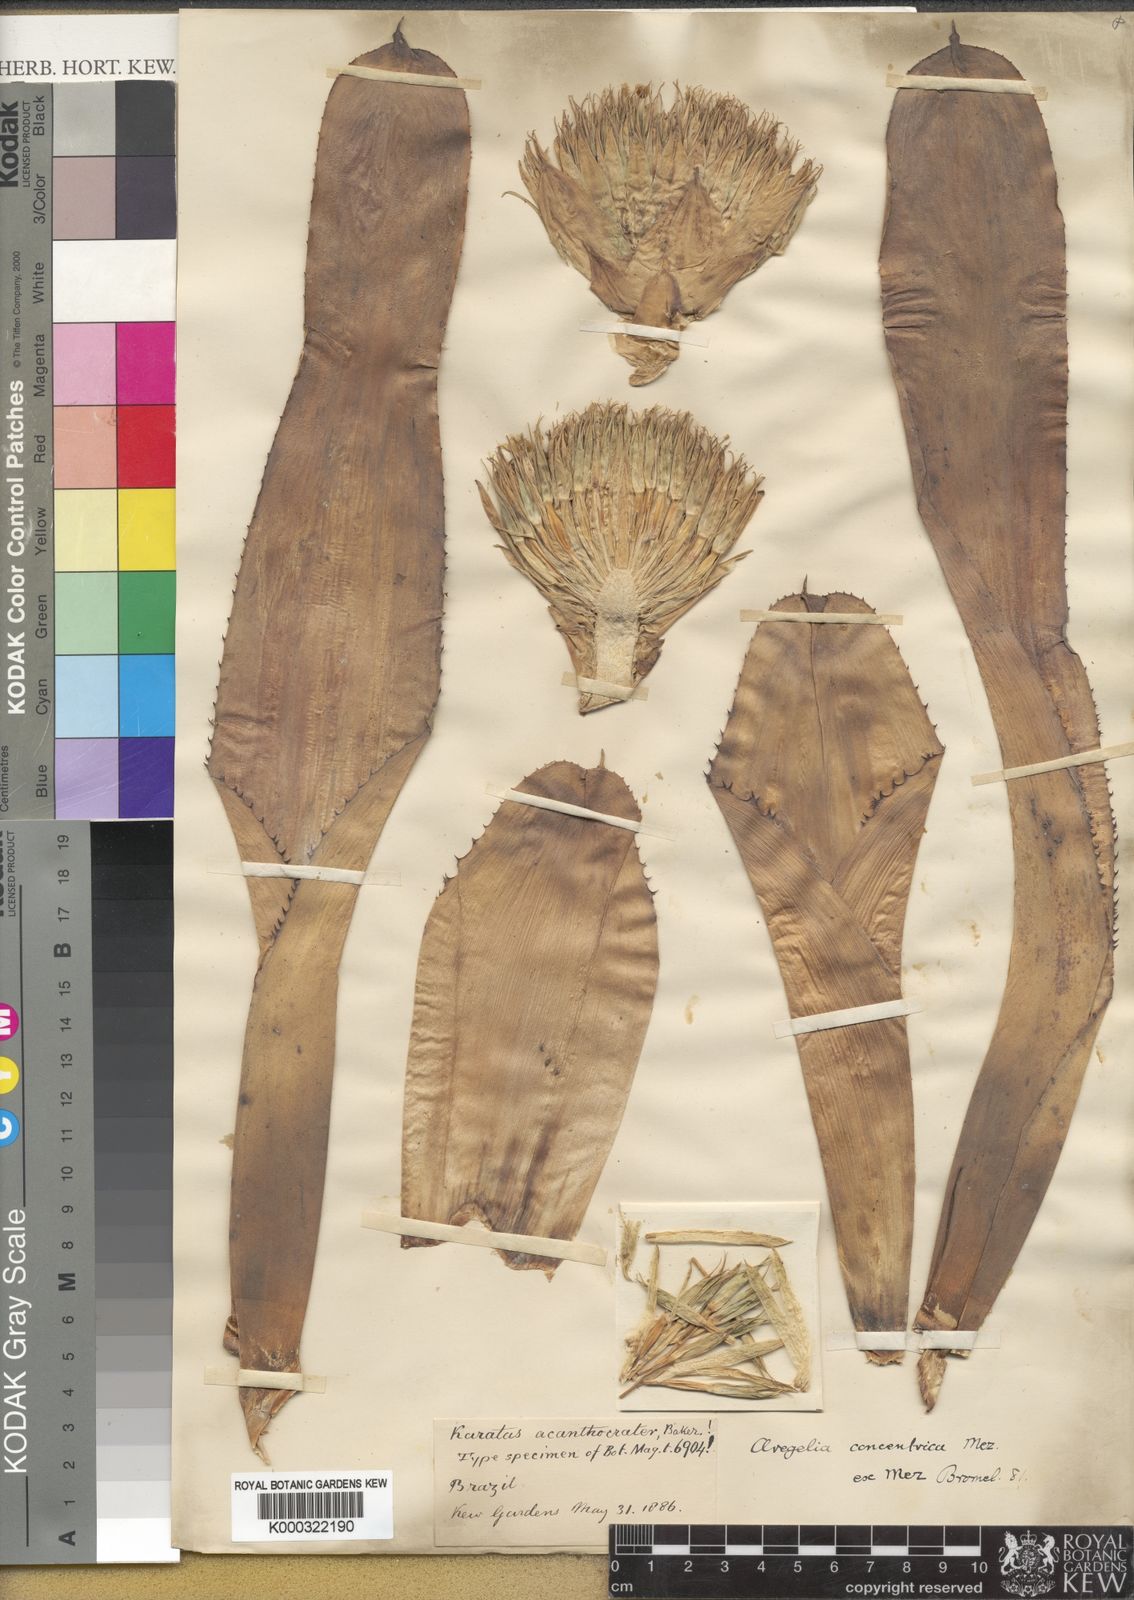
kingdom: Plantae
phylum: Tracheophyta
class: Liliopsida
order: Poales
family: Bromeliaceae
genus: Neoregelia
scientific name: Neoregelia concentrica
